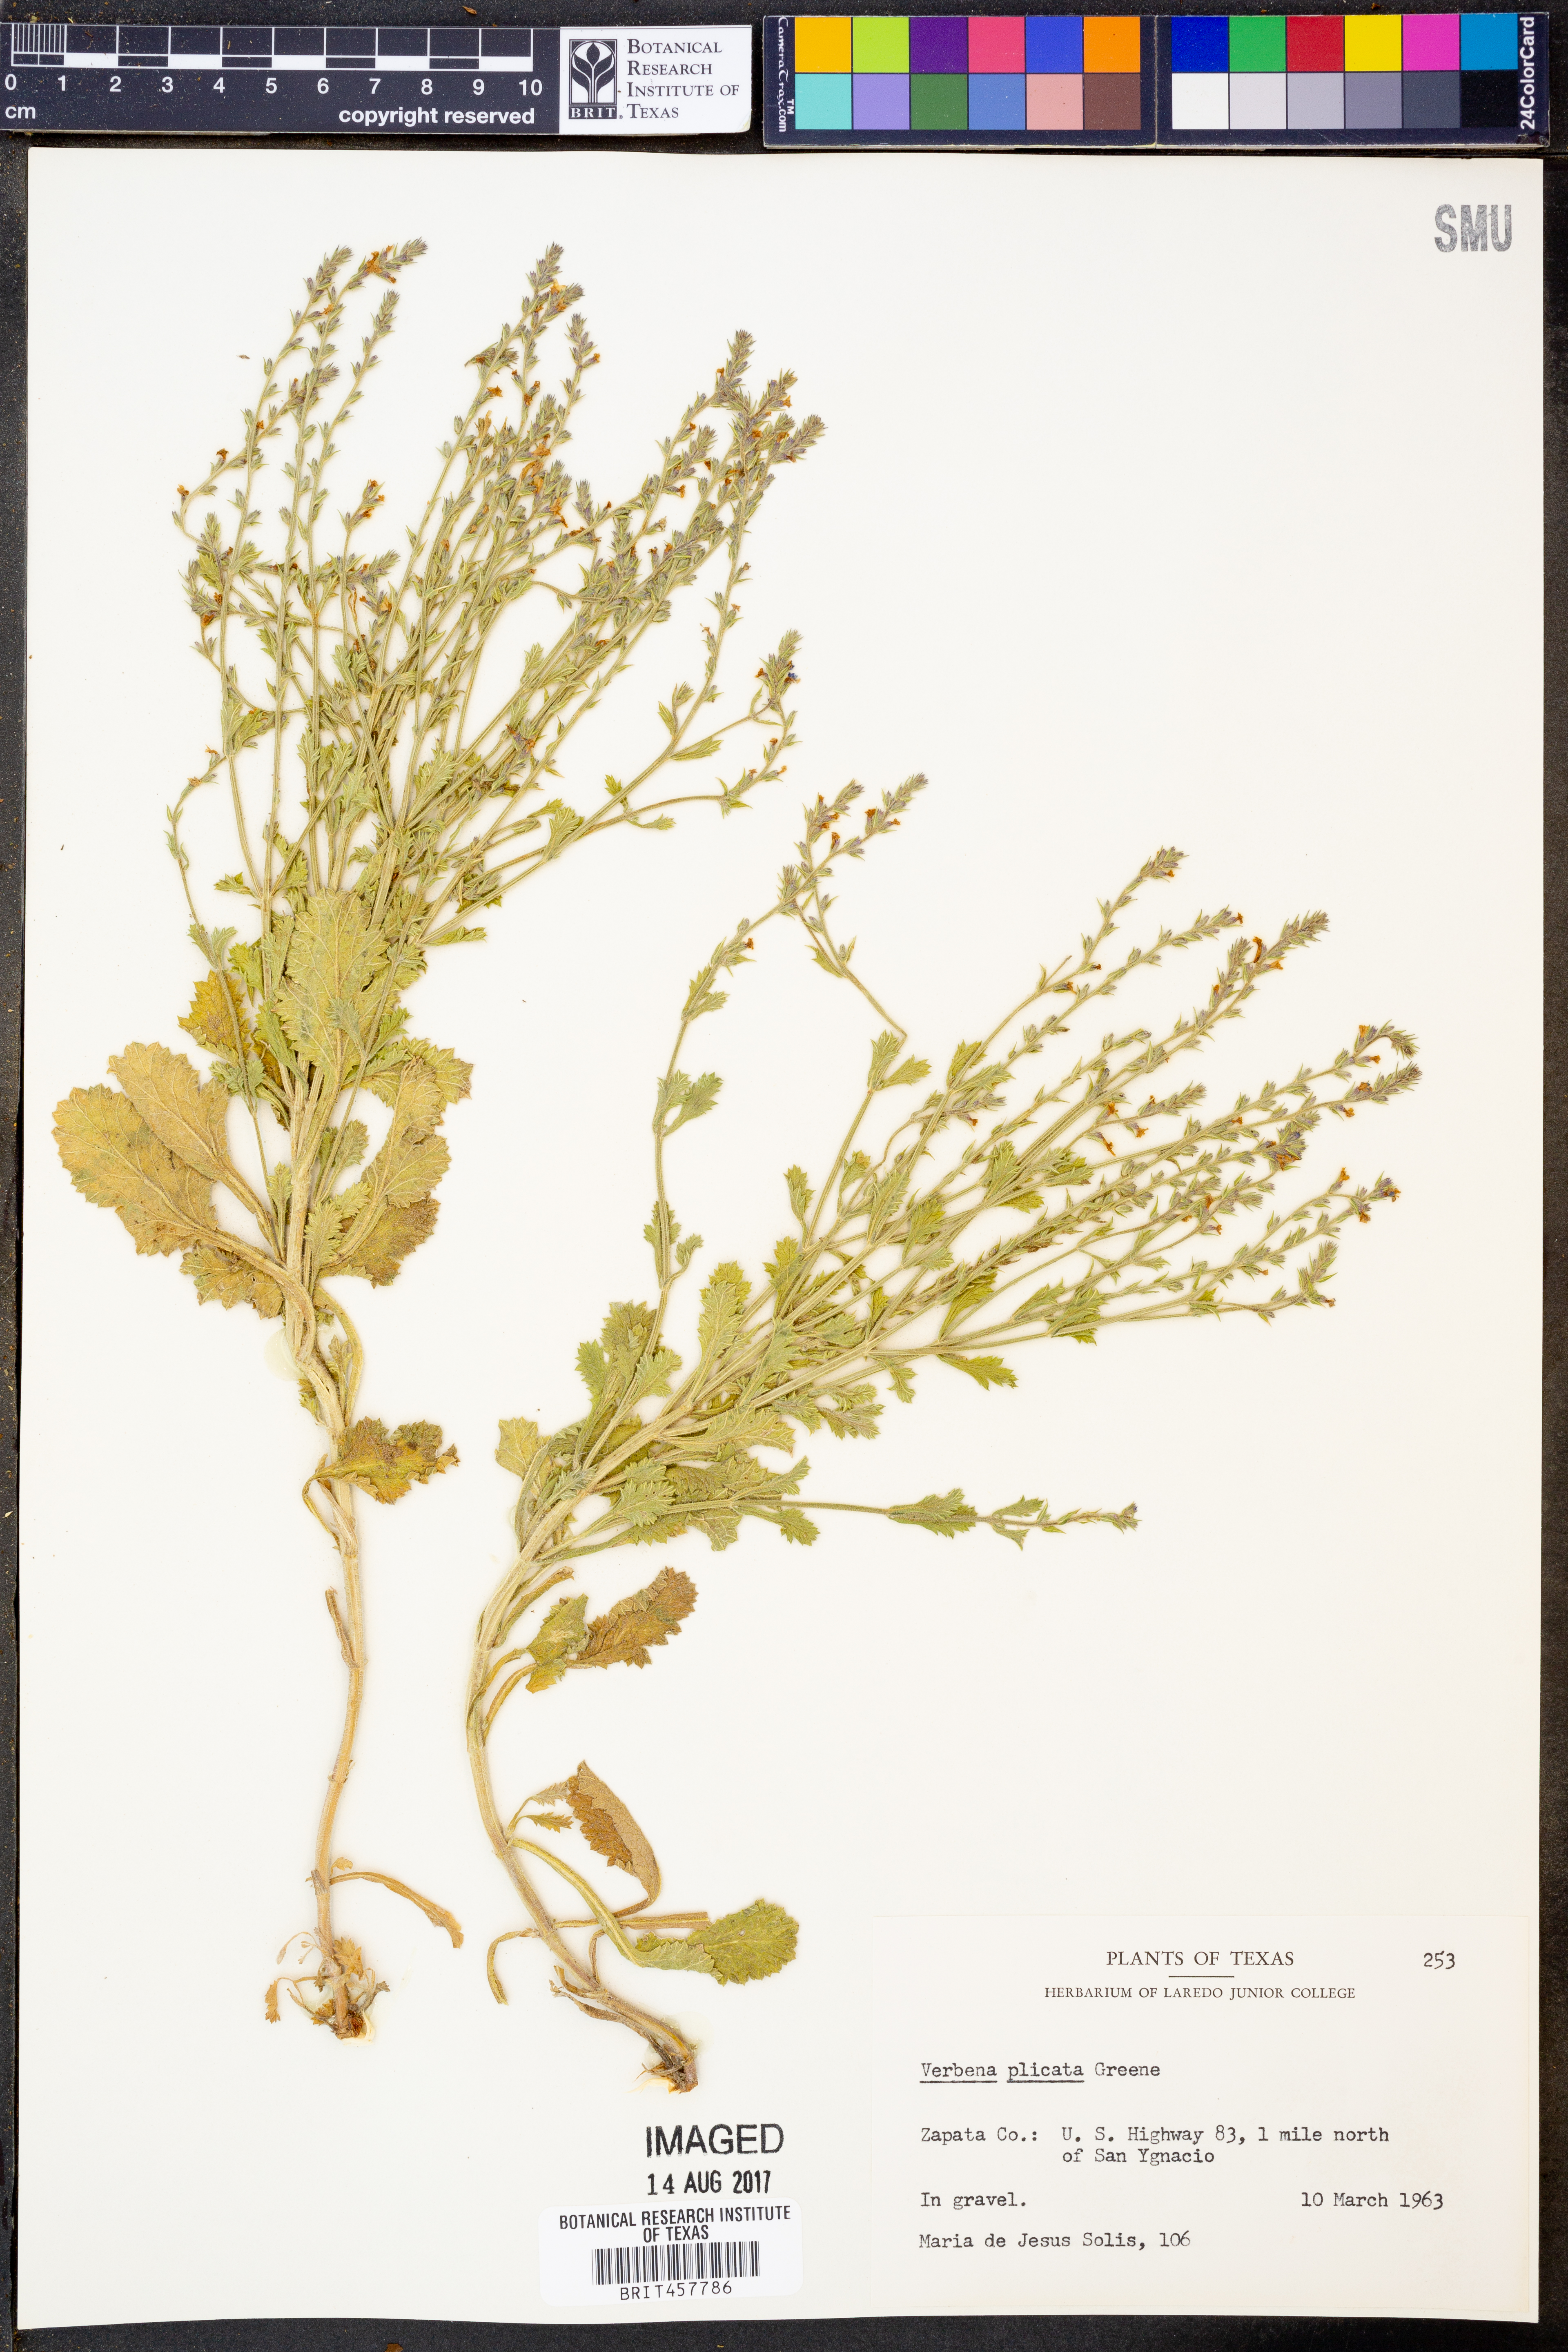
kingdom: Plantae
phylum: Tracheophyta
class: Magnoliopsida
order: Lamiales
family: Verbenaceae
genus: Verbena
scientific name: Verbena plicata
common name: Fan-leaf vervain
